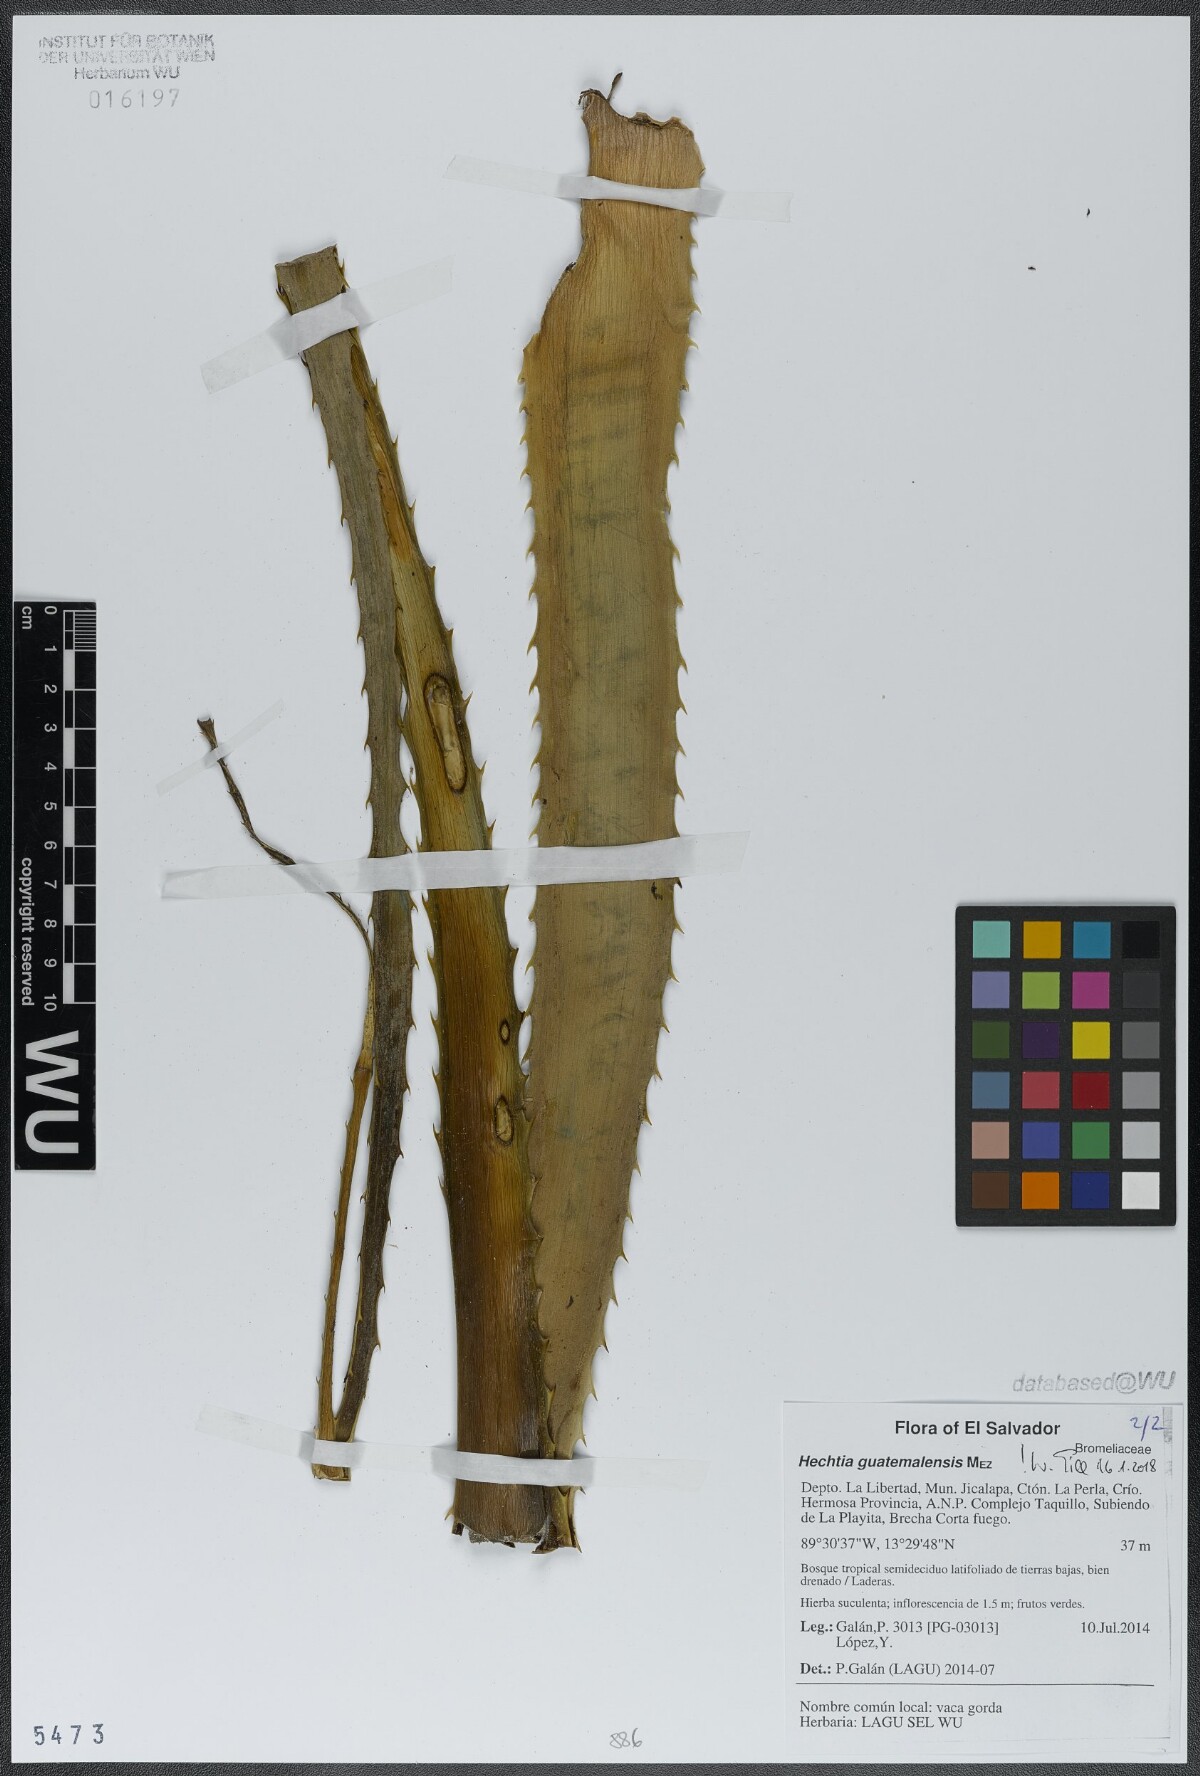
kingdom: Plantae
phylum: Tracheophyta
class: Liliopsida
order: Poales
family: Bromeliaceae
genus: Hechtia
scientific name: Hechtia guatemalensis
